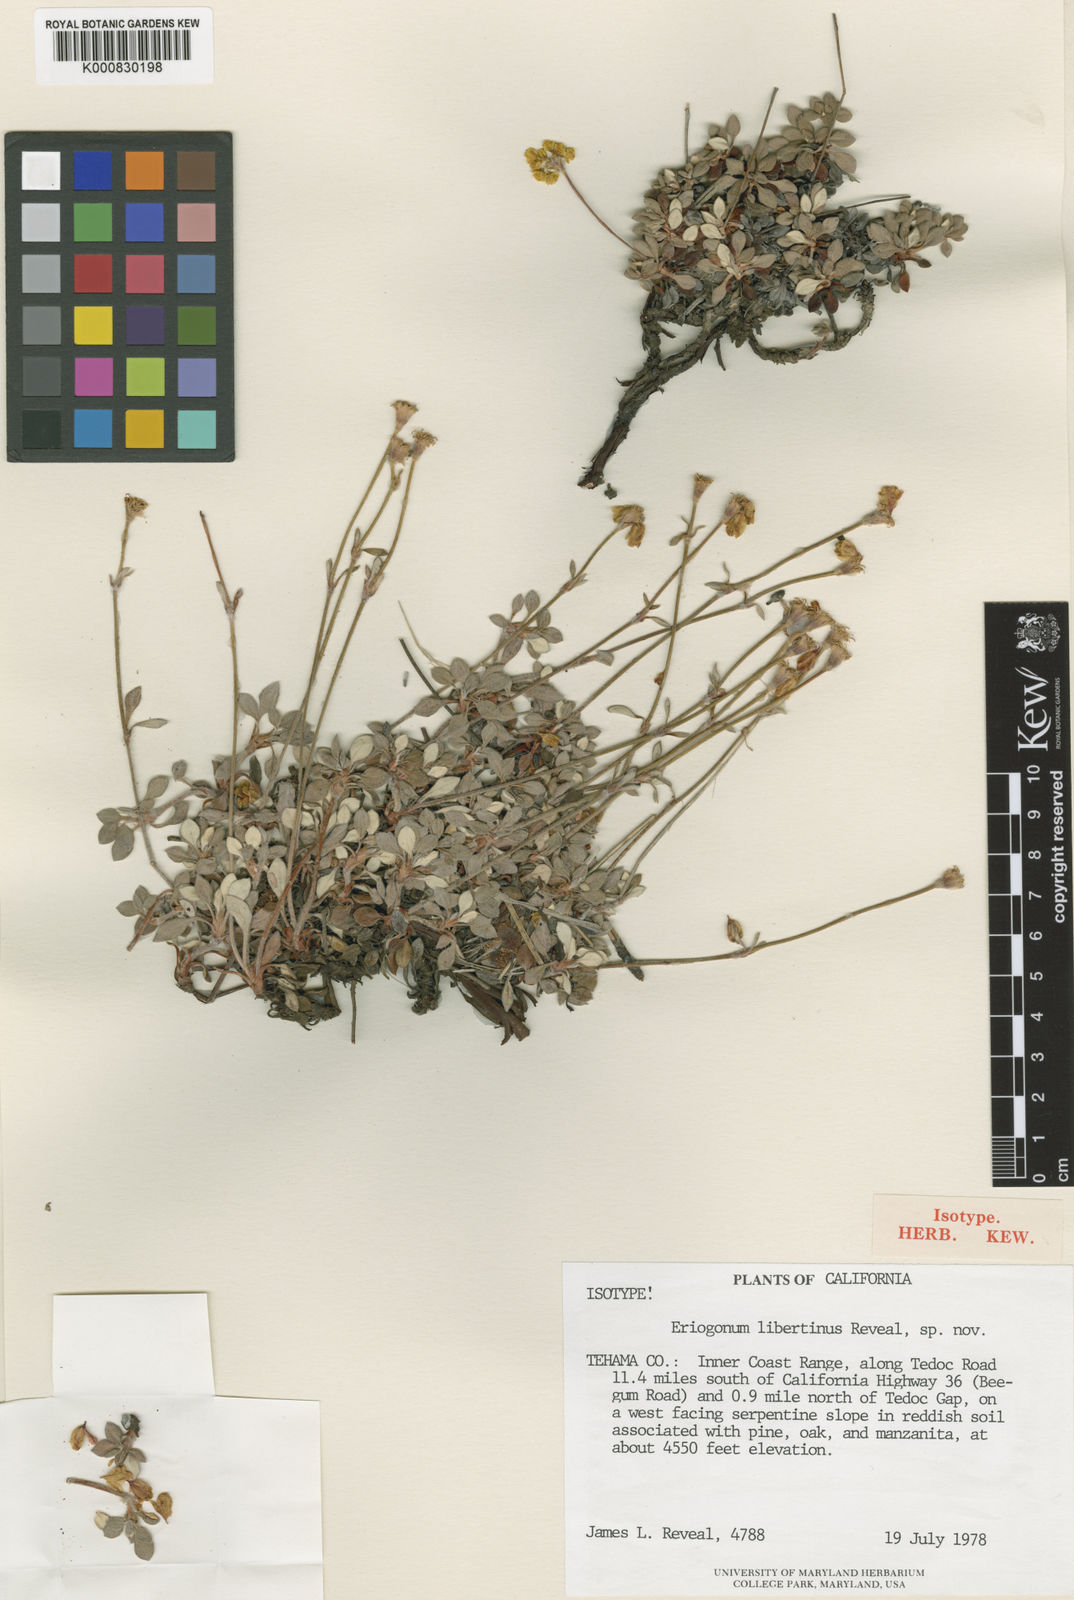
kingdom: Plantae
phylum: Tracheophyta
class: Magnoliopsida
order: Caryophyllales
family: Polygonaceae
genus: Eriogonum
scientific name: Eriogonum libertini
